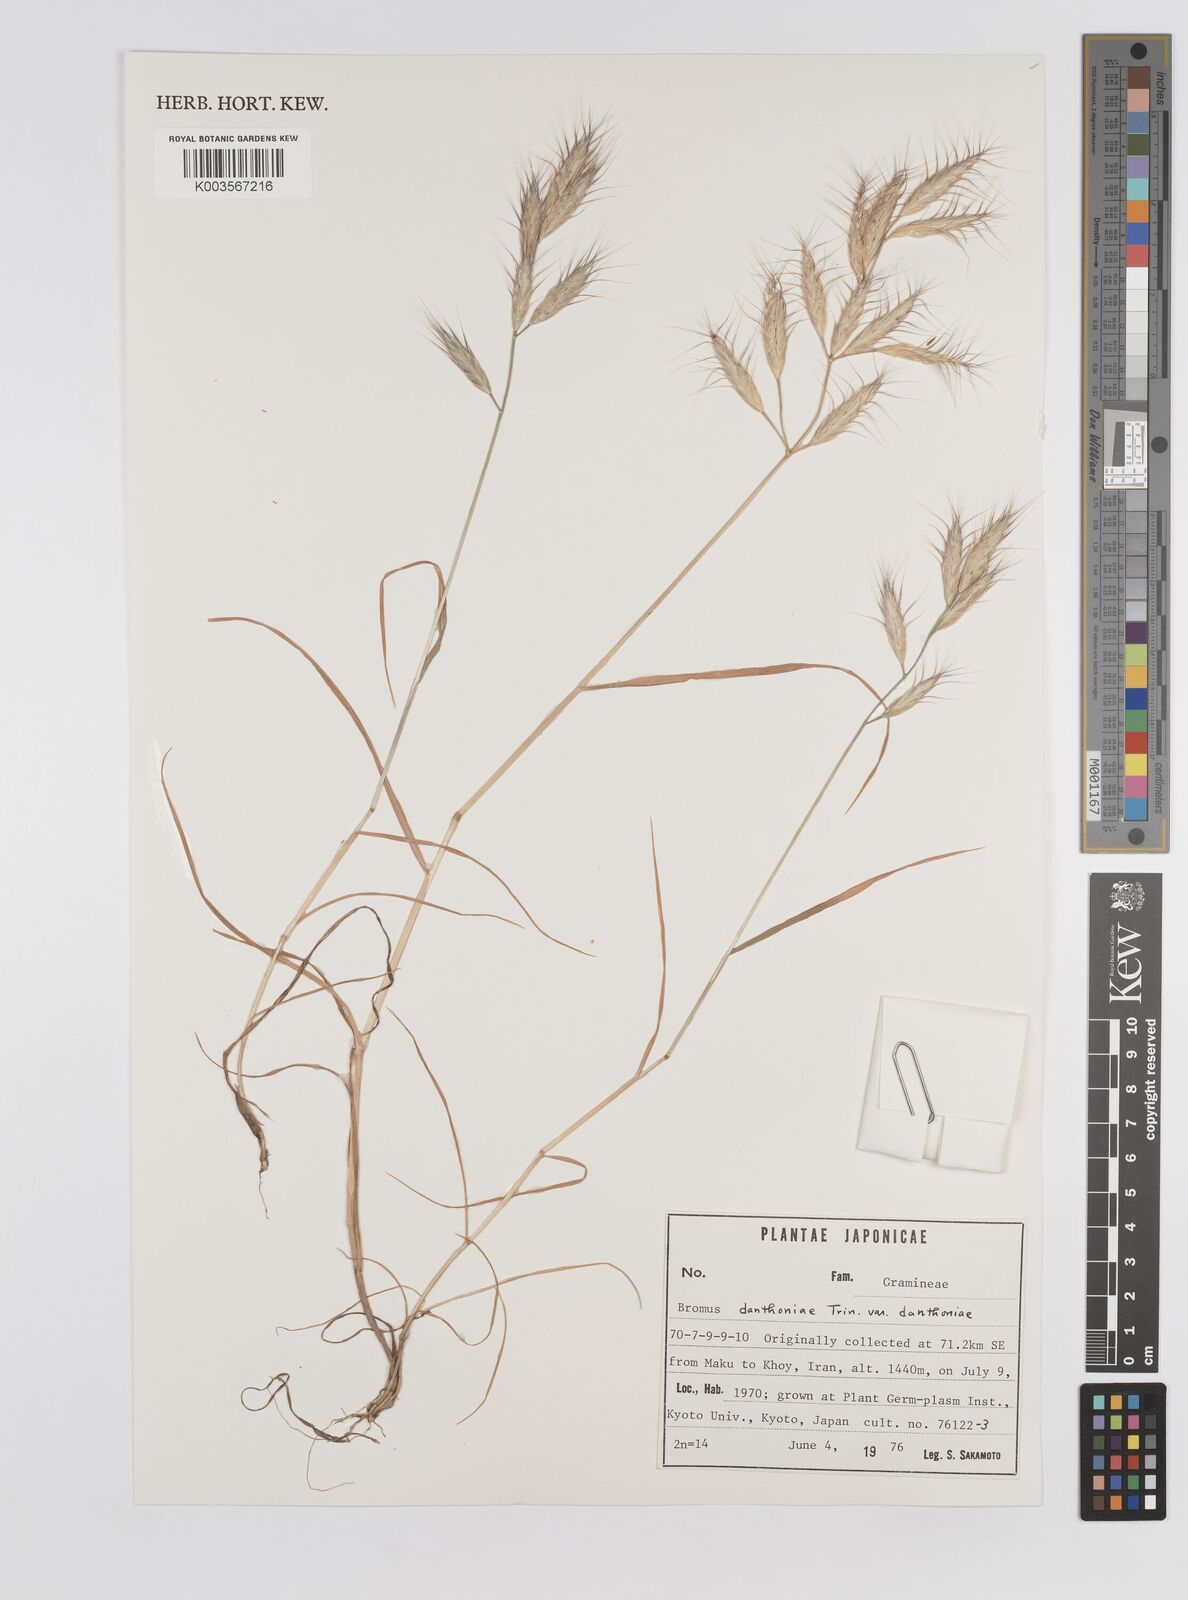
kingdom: Plantae
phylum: Tracheophyta
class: Liliopsida
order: Poales
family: Poaceae
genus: Bromus
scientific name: Bromus danthoniae
